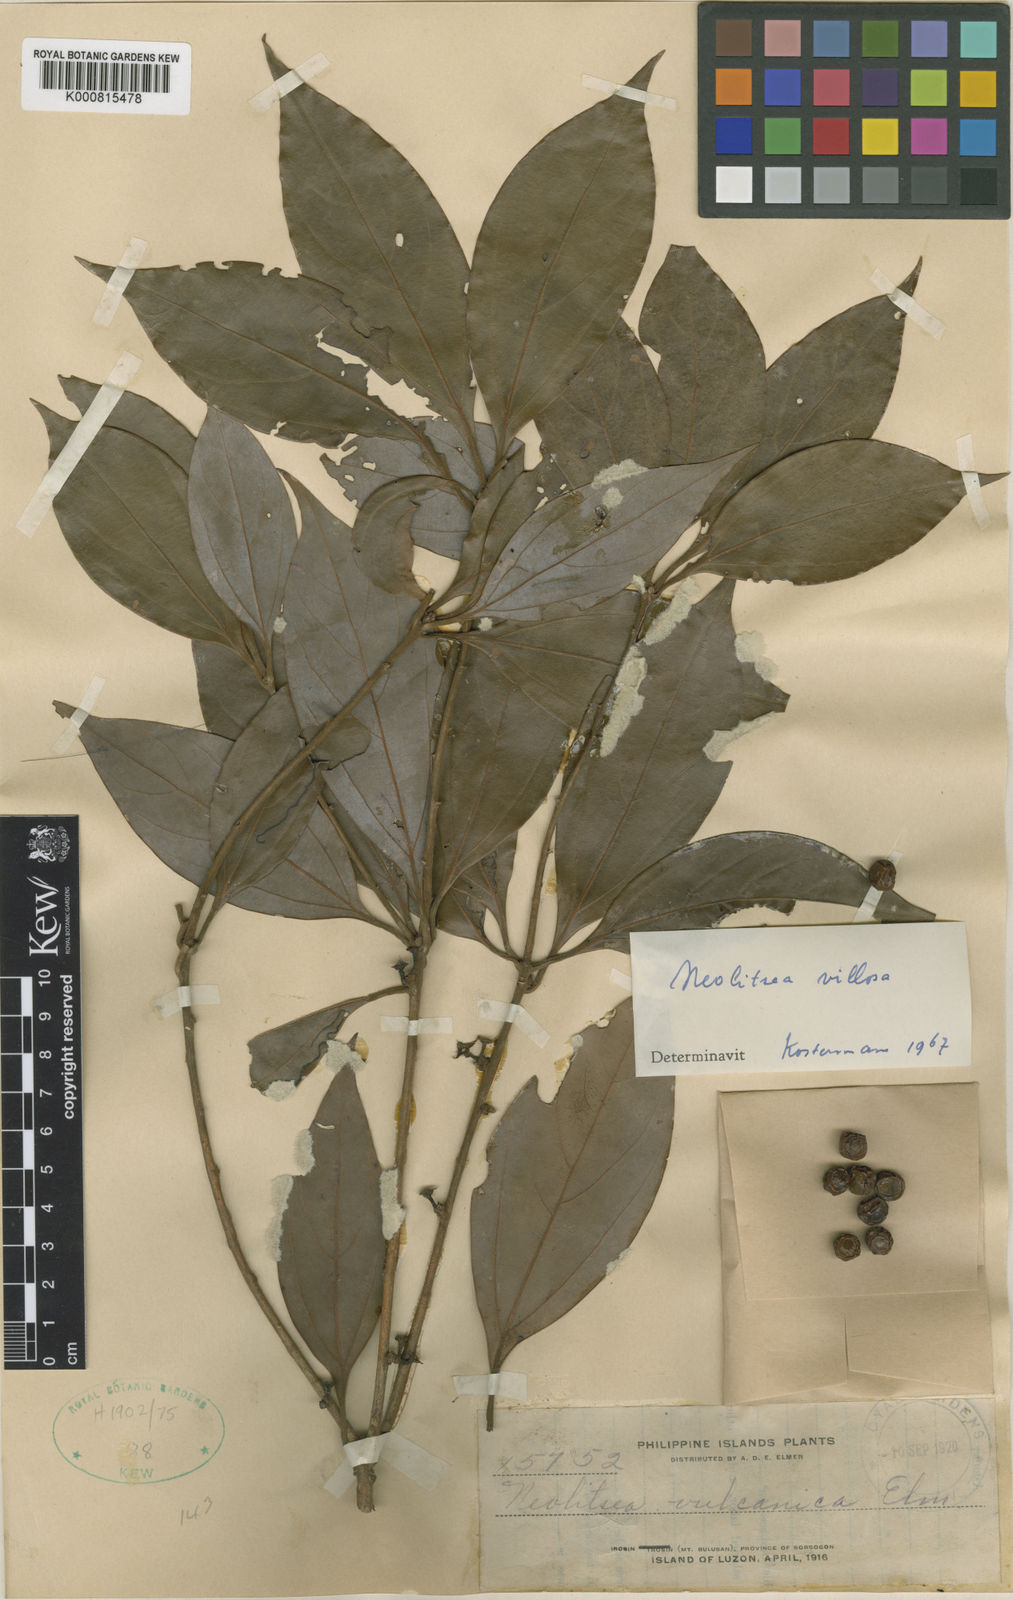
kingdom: Plantae
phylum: Tracheophyta
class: Magnoliopsida
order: Laurales
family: Lauraceae
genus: Neolitsea
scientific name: Neolitsea villosa
